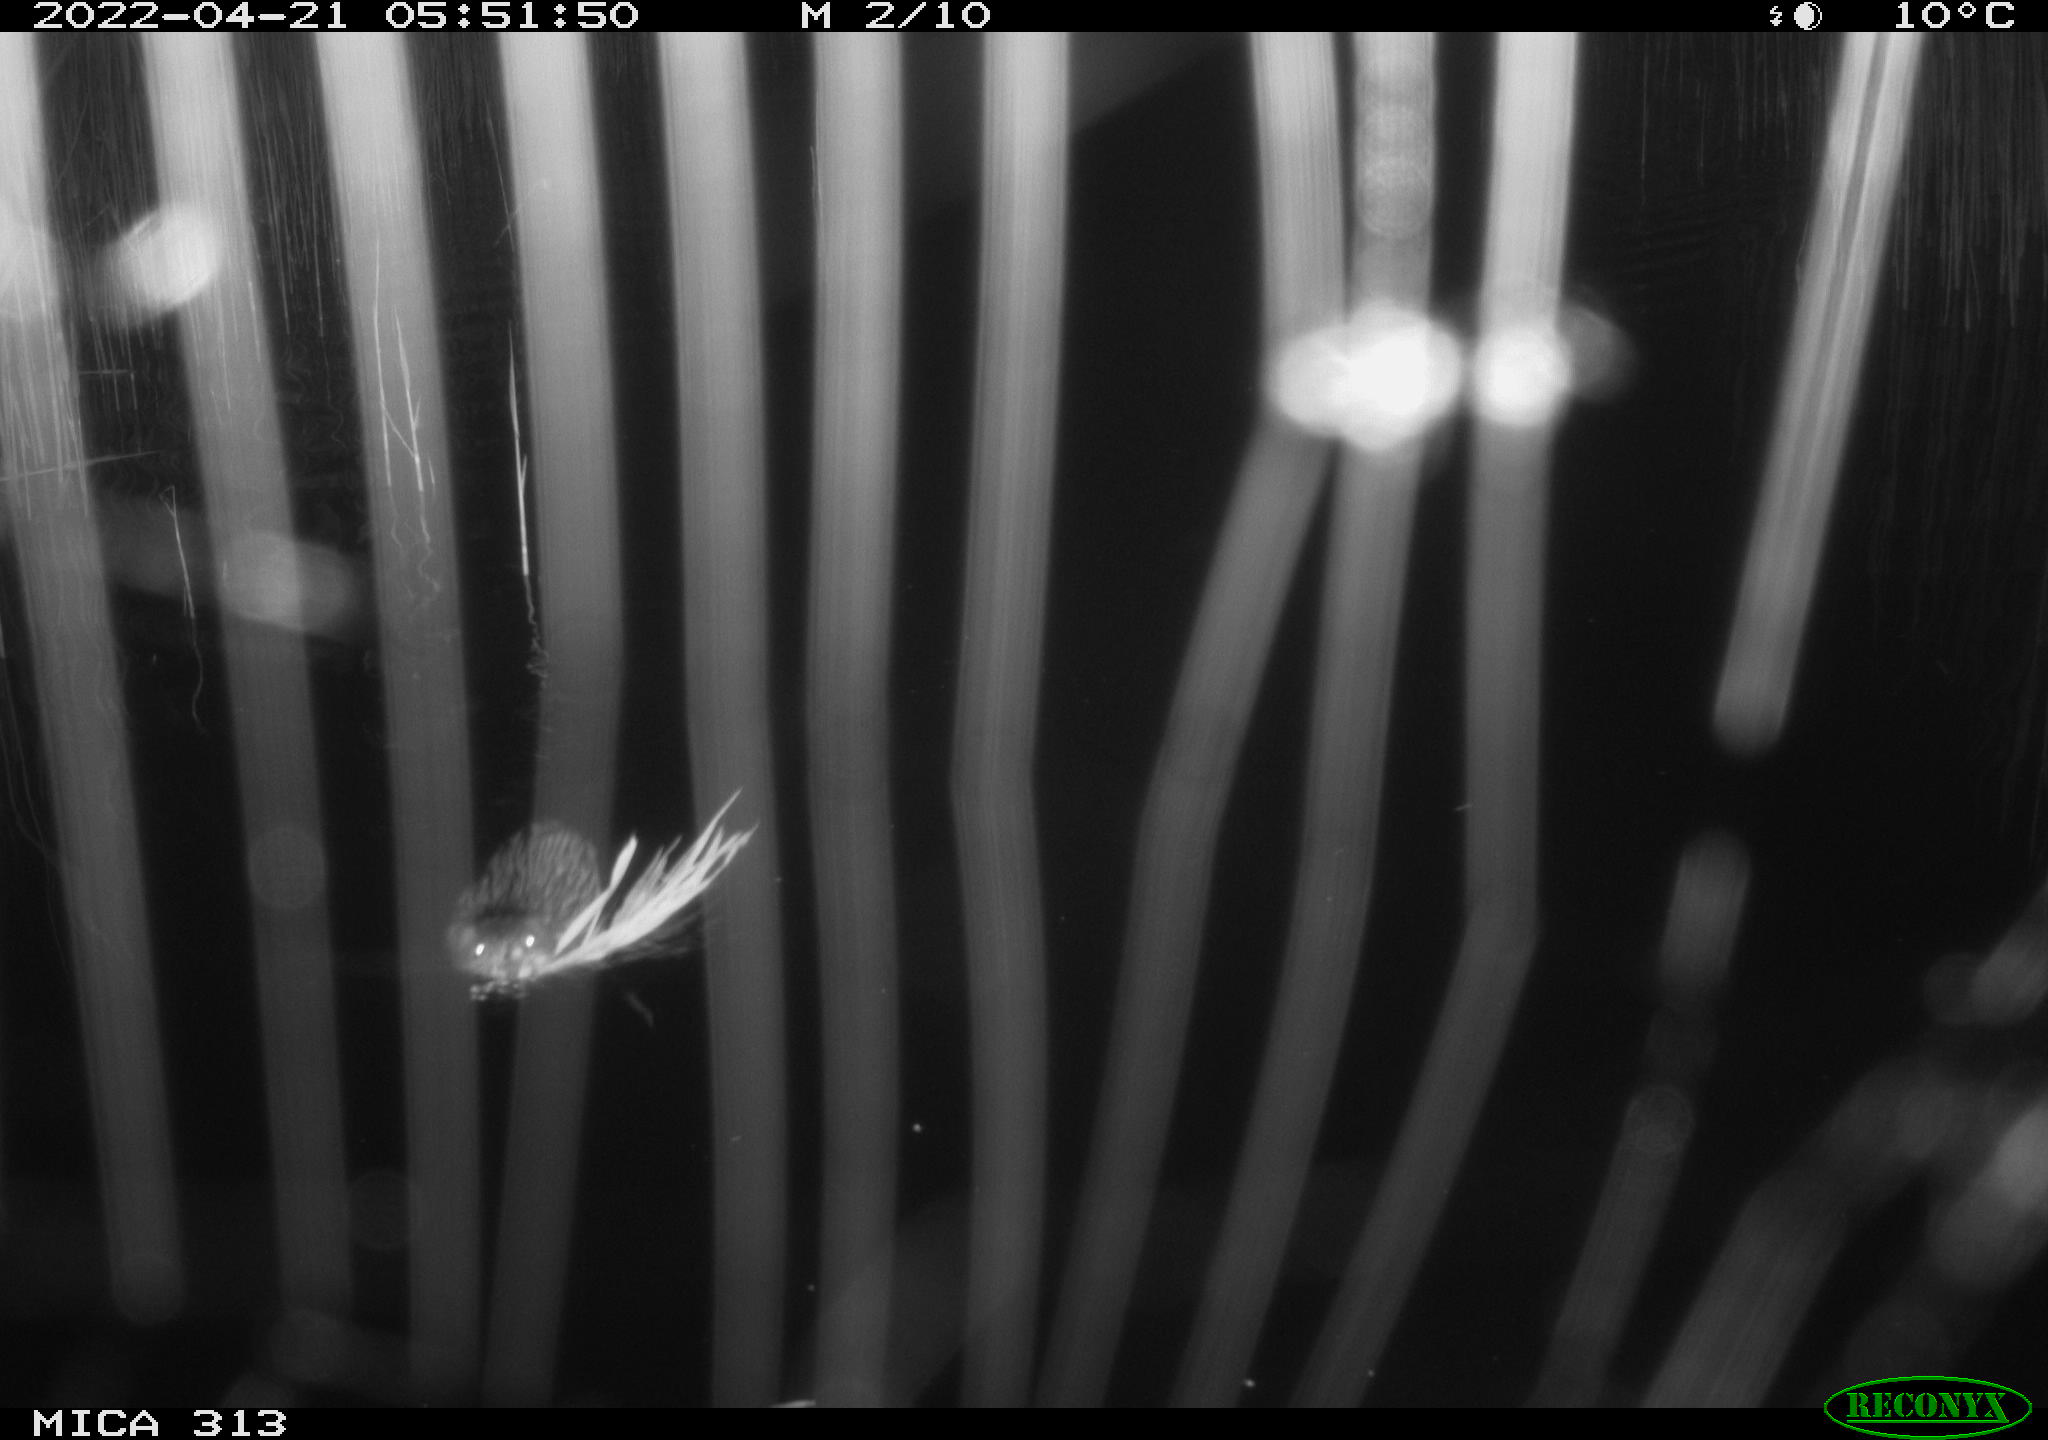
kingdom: Animalia
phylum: Chordata
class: Mammalia
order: Rodentia
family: Cricetidae
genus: Ondatra
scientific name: Ondatra zibethicus
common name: Muskrat
